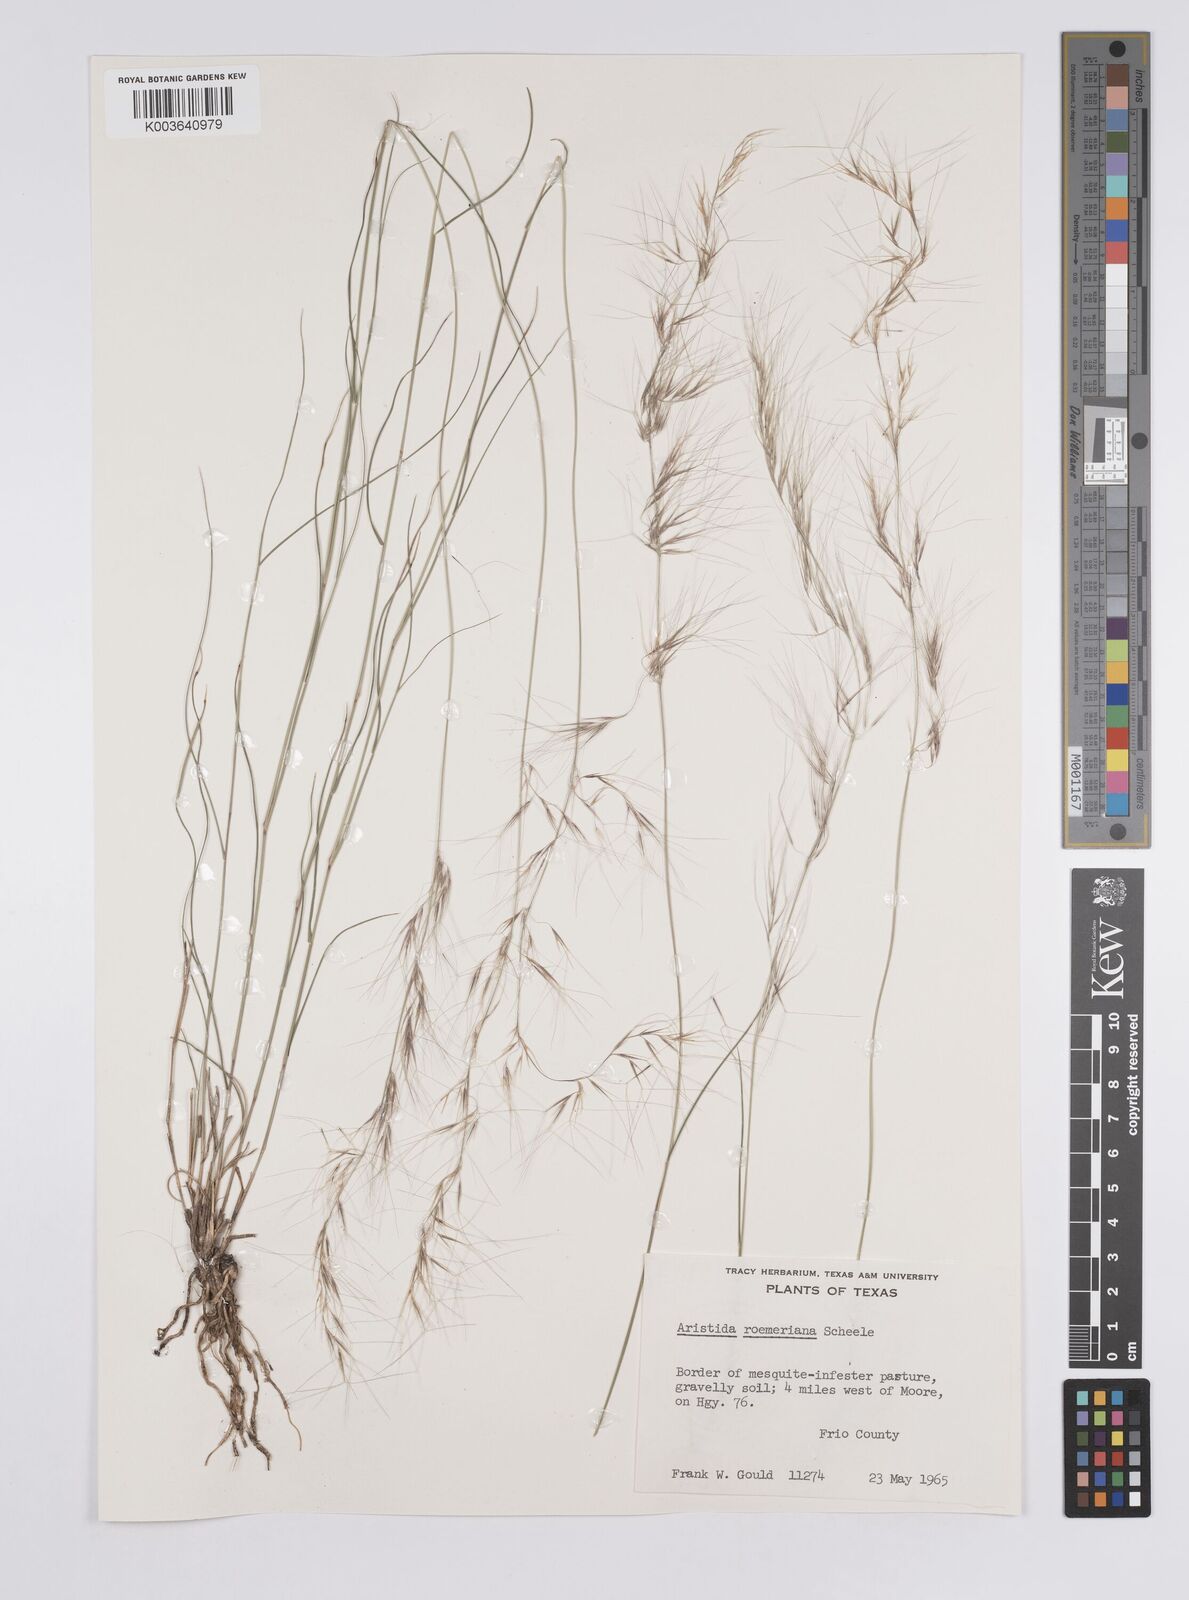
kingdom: Plantae
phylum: Tracheophyta
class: Liliopsida
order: Poales
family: Poaceae
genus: Aristida
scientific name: Aristida purpurea
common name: Purple threeawn
